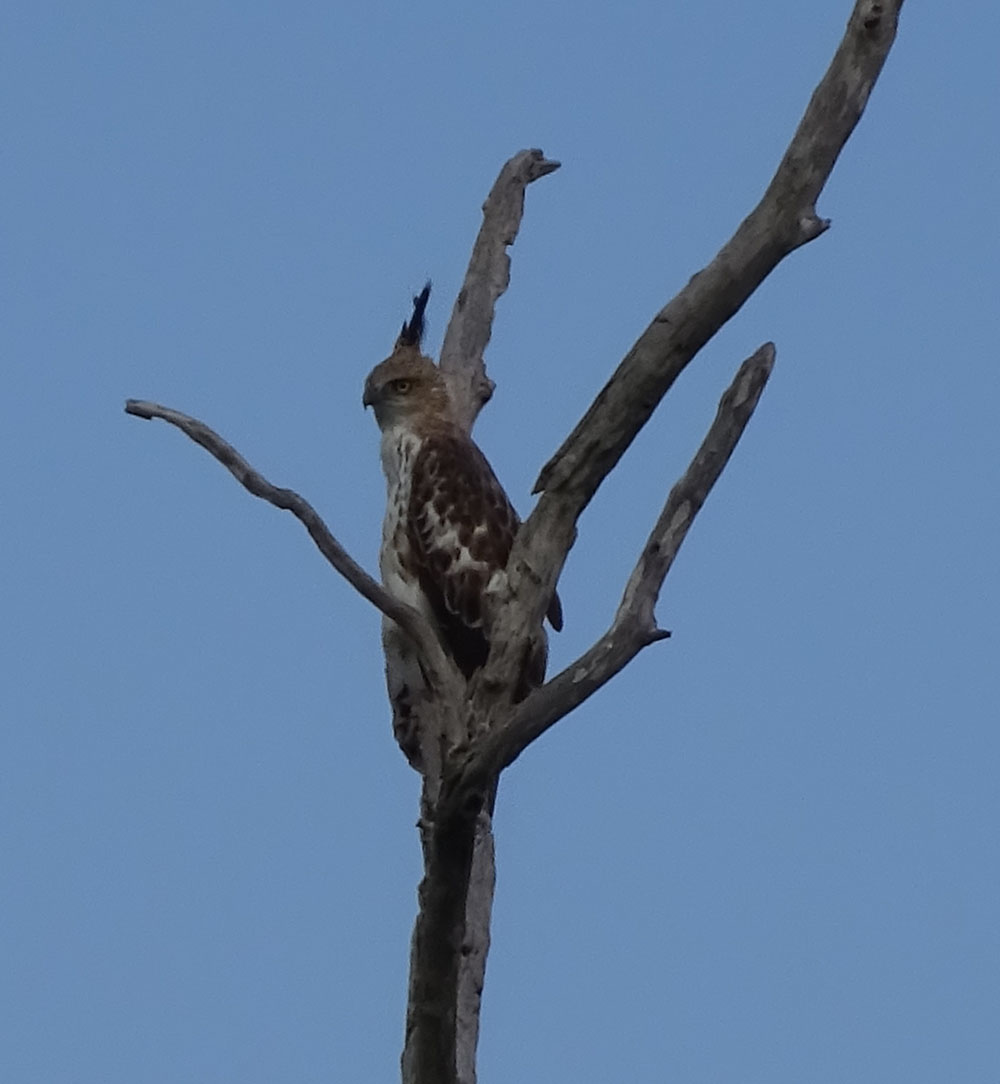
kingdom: Animalia
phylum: Chordata
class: Aves
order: Accipitriformes
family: Accipitridae
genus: Nisaetus
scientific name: Nisaetus cirrhatus
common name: Changeable hawk-eagle
